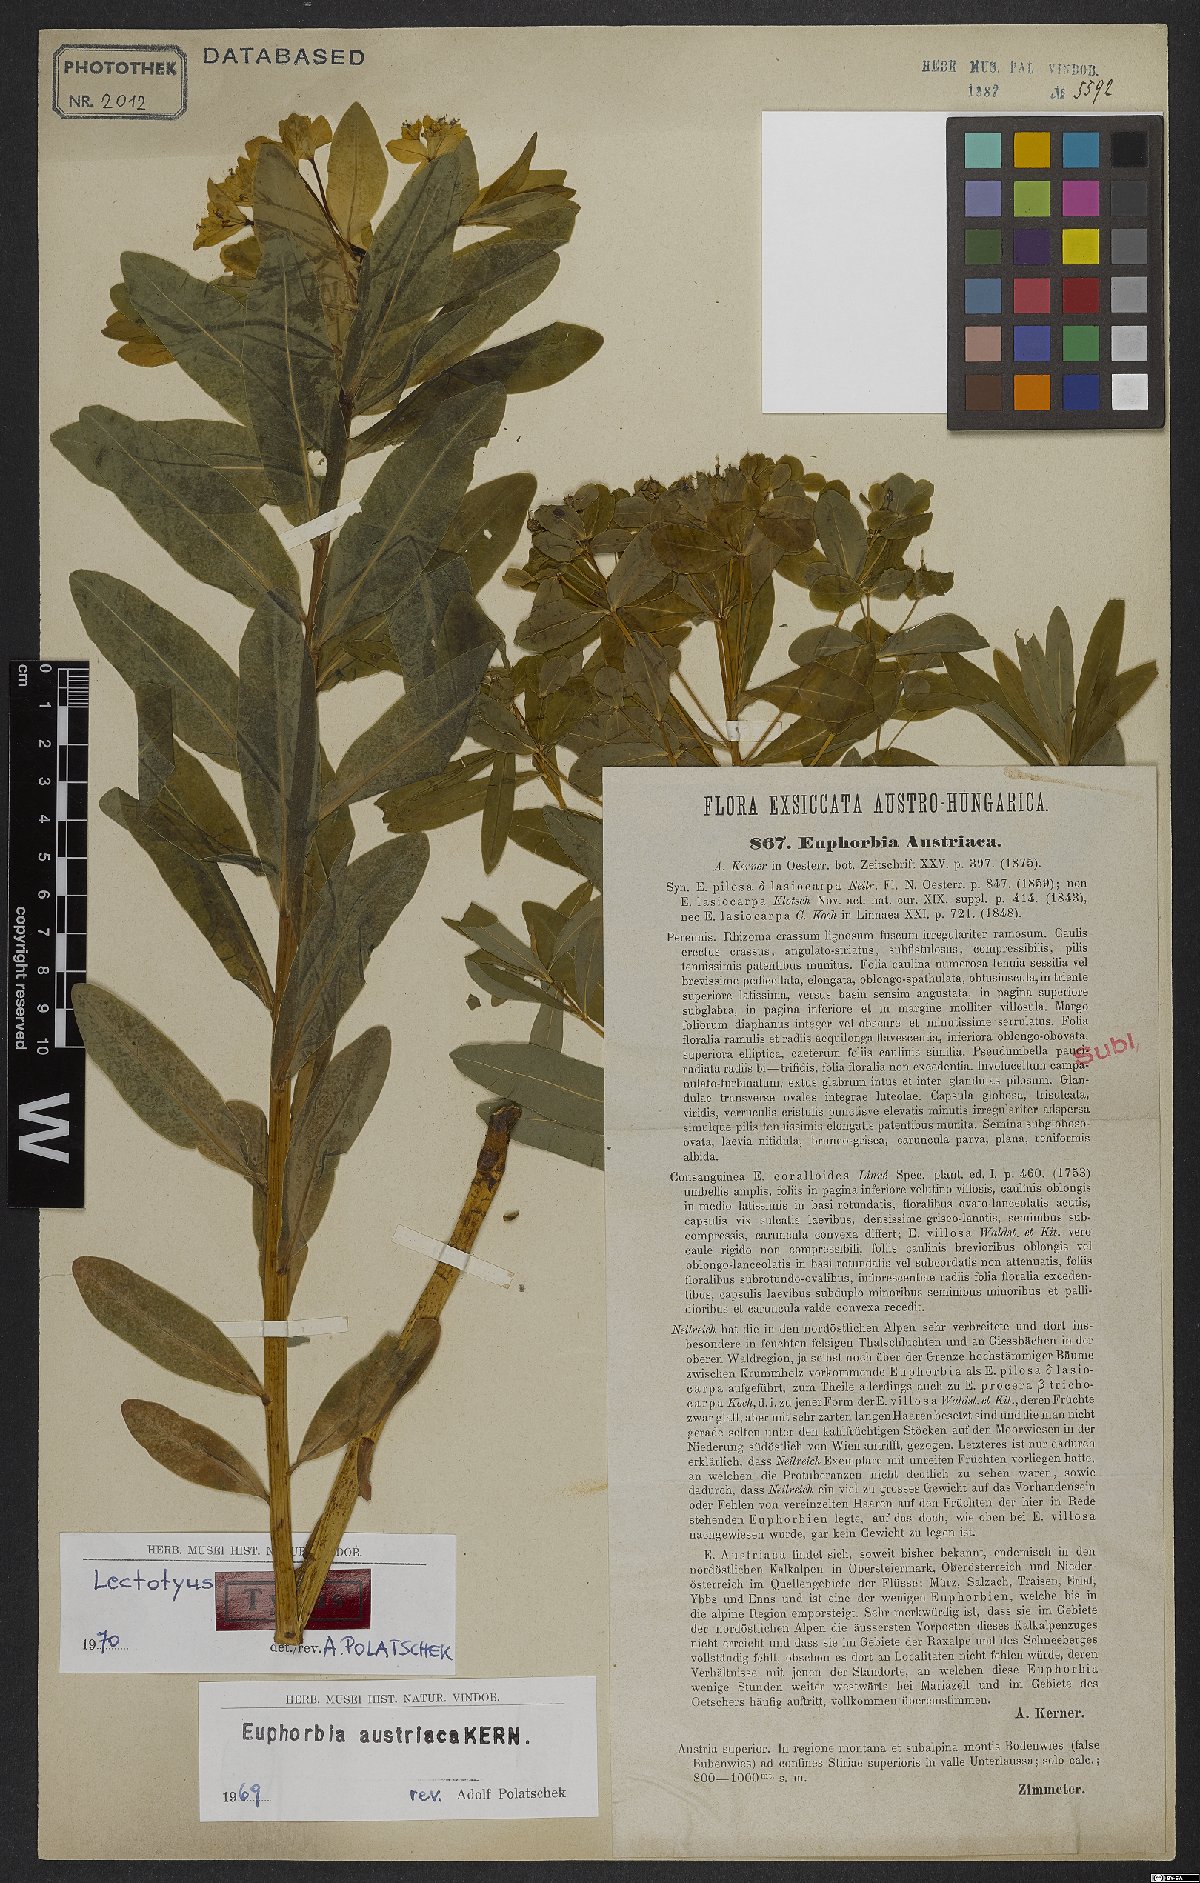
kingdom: Plantae
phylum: Tracheophyta
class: Magnoliopsida
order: Malpighiales
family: Euphorbiaceae
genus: Euphorbia
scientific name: Euphorbia austriaca
